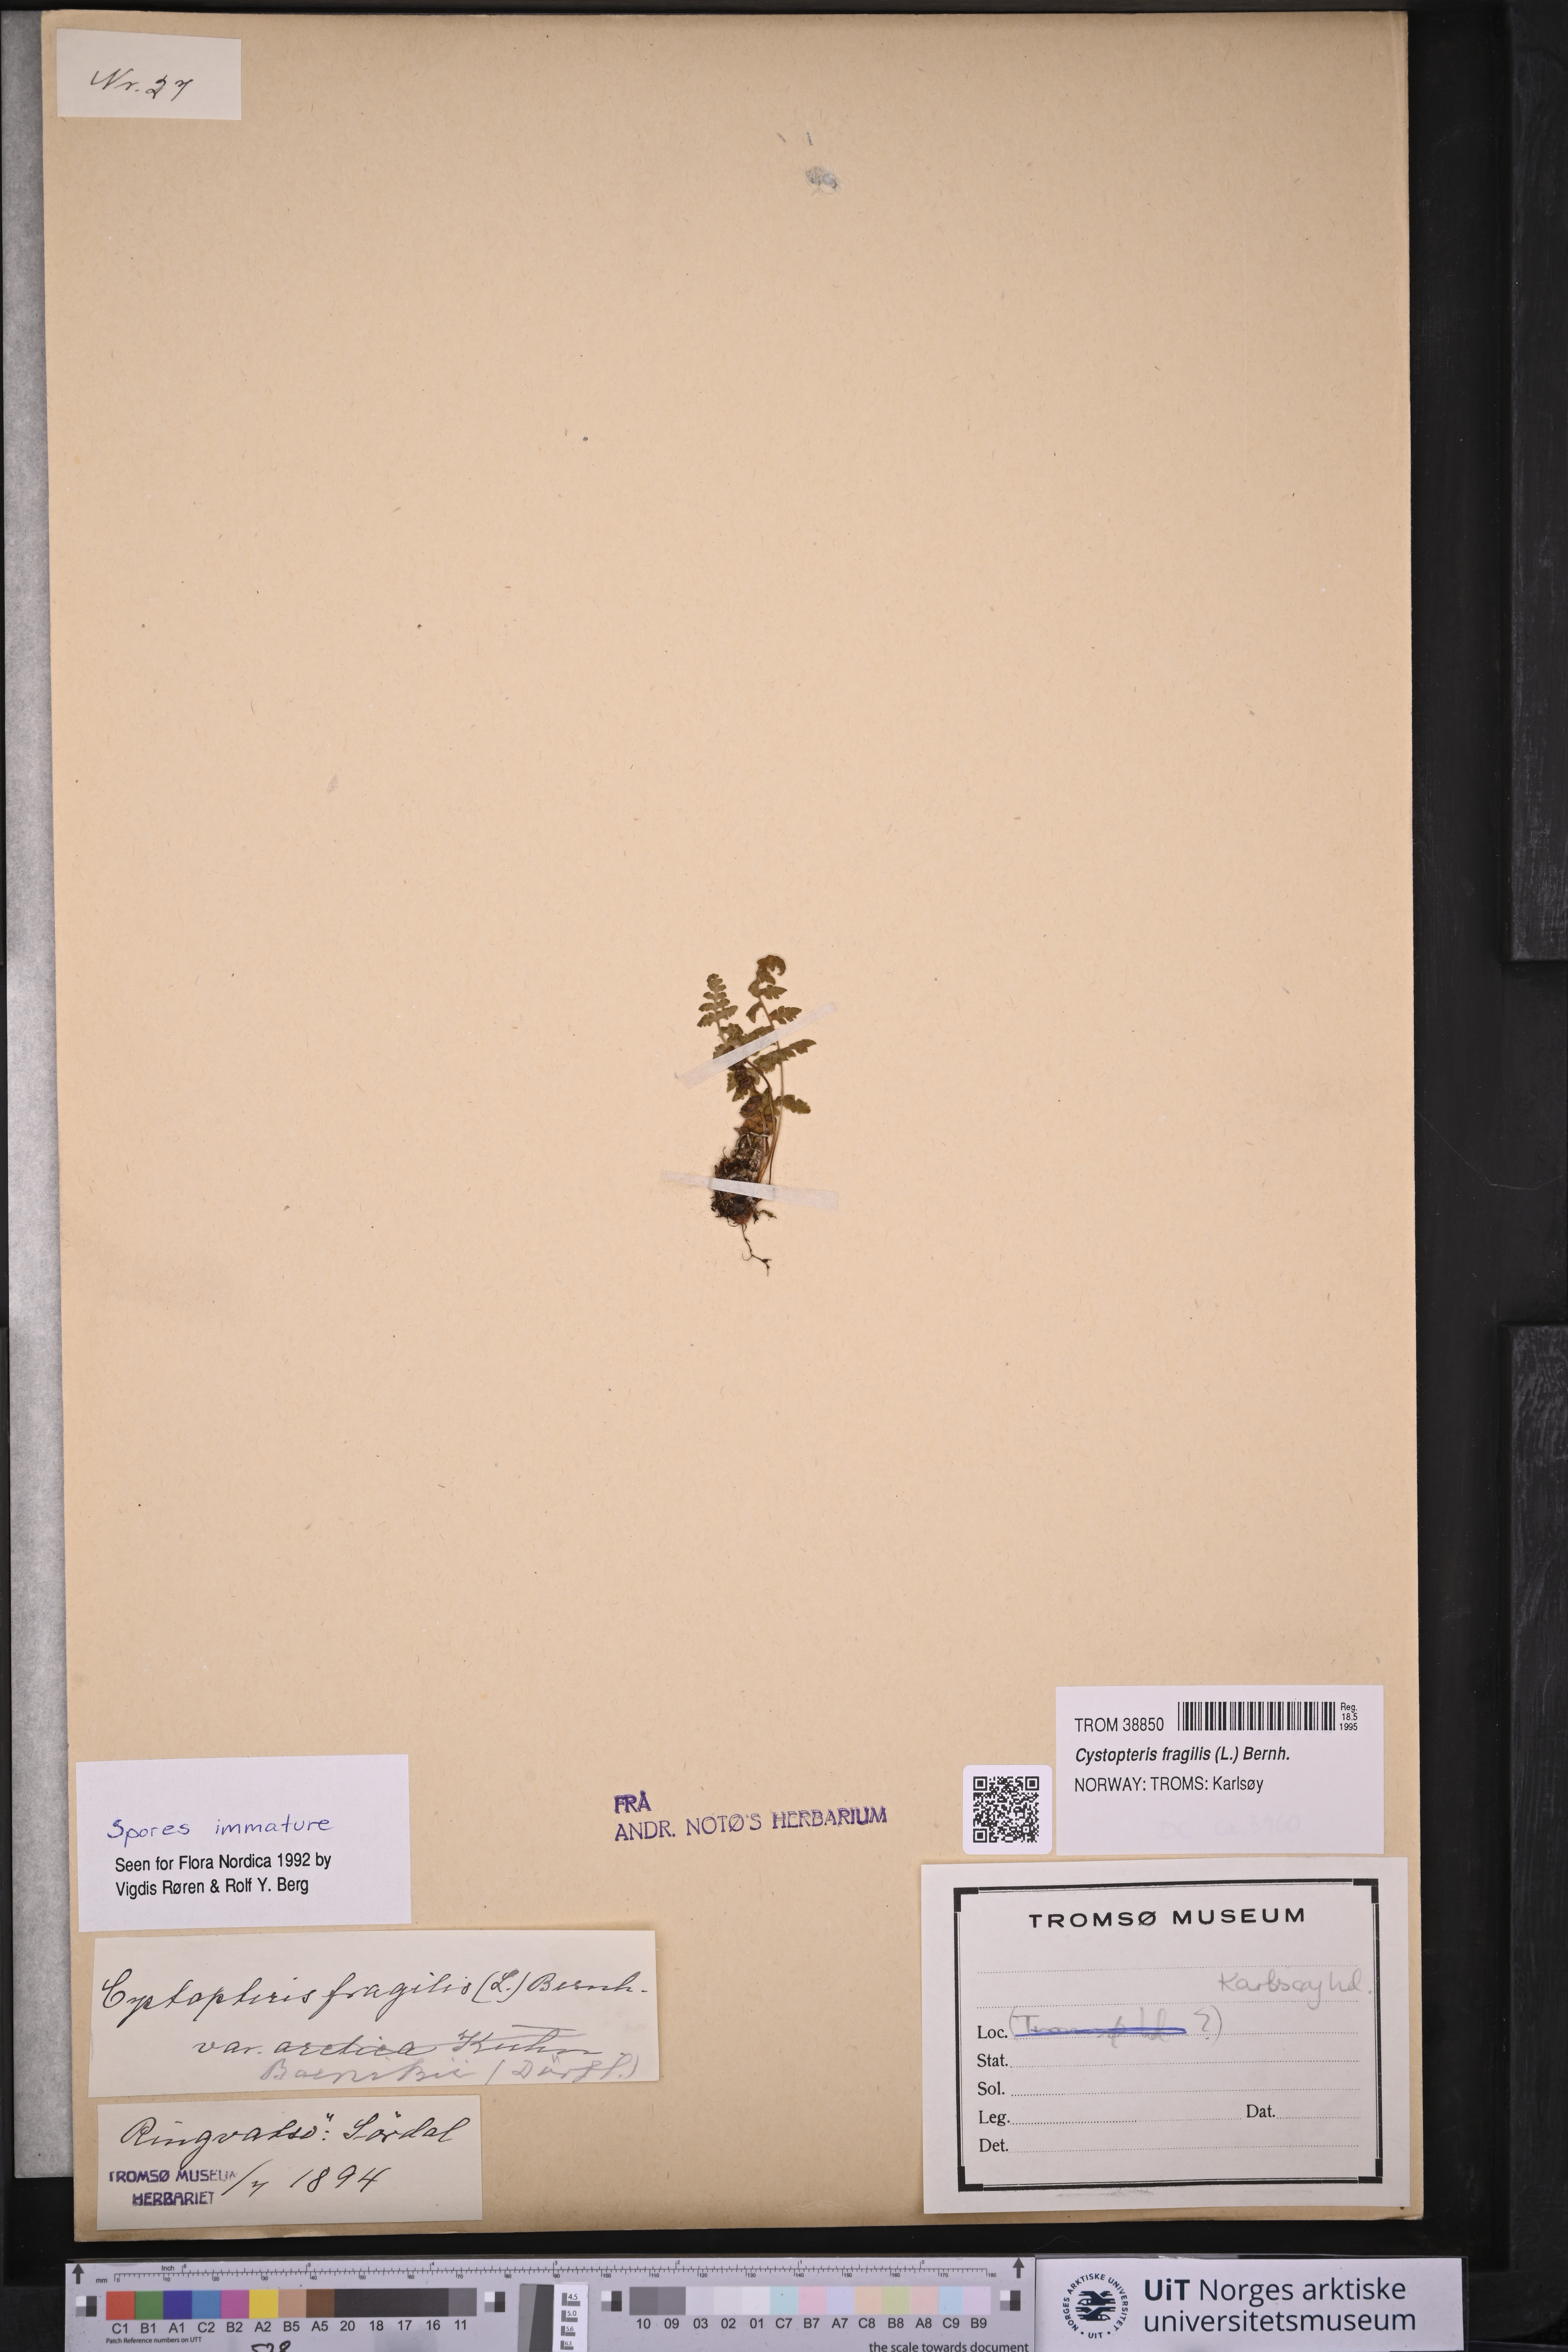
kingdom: Plantae
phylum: Tracheophyta
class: Polypodiopsida
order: Polypodiales
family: Cystopteridaceae
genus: Cystopteris
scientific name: Cystopteris fragilis
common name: Brittle bladder fern
